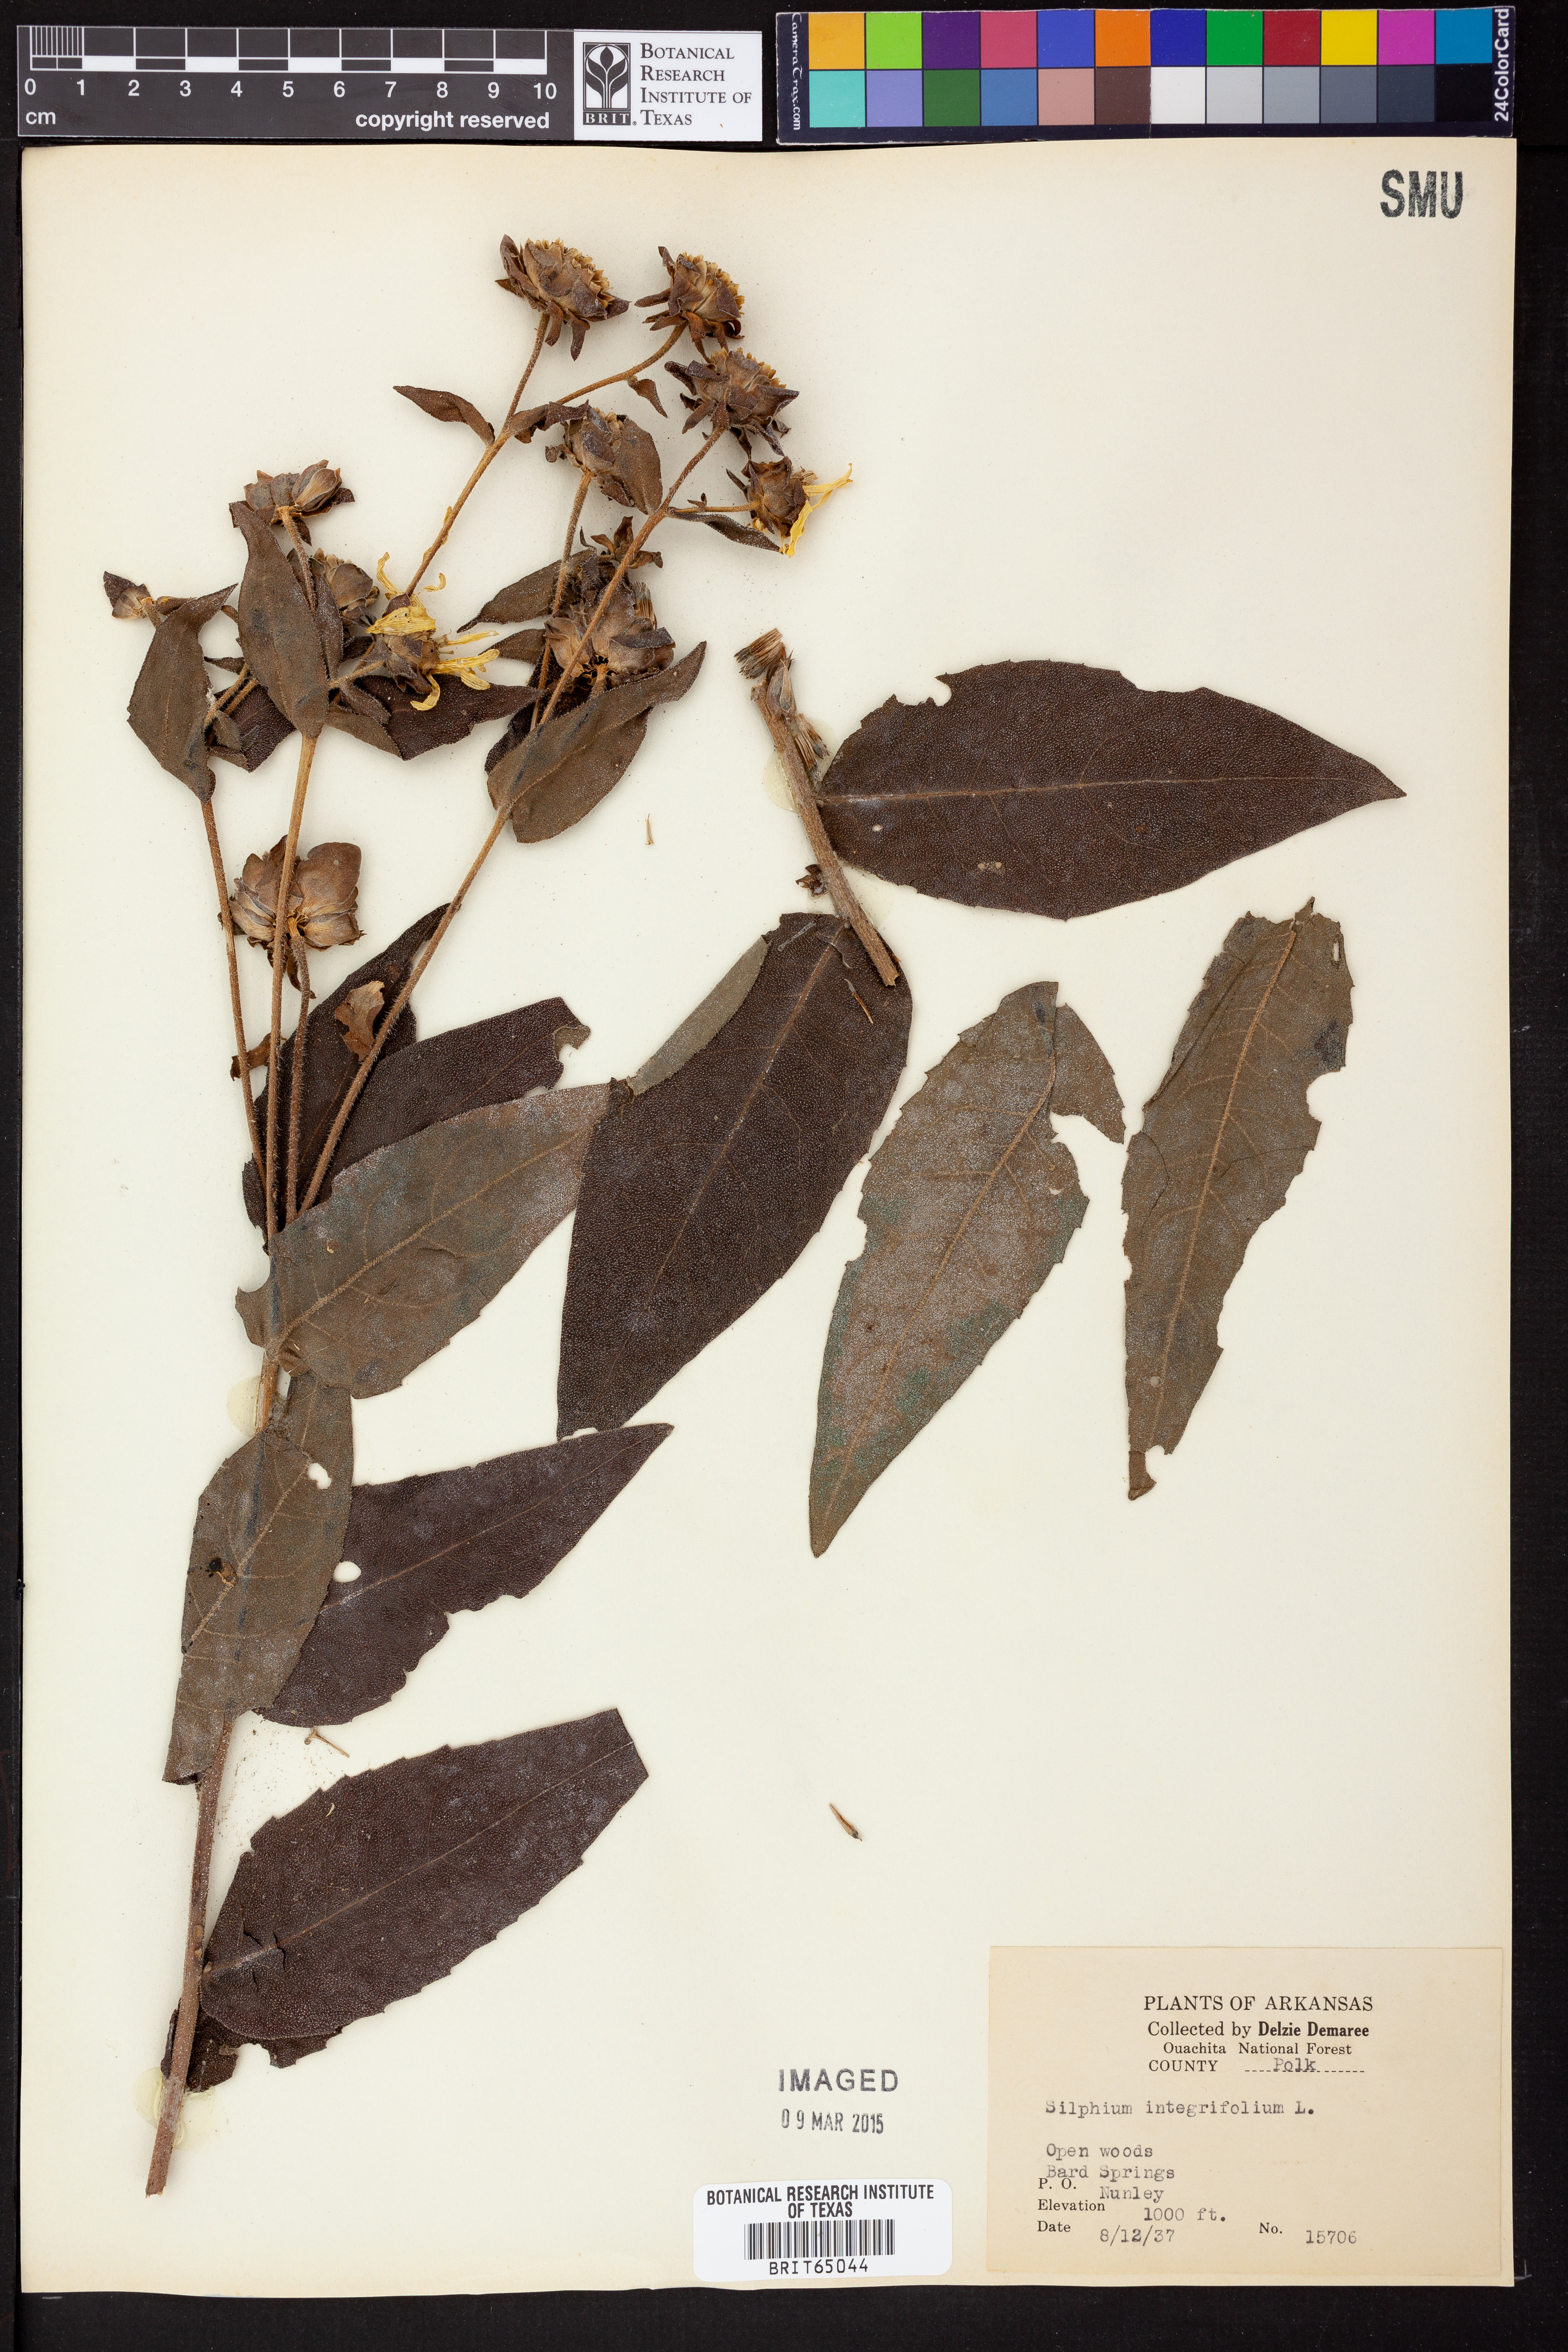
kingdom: Plantae
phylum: Tracheophyta
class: Magnoliopsida
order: Asterales
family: Asteraceae
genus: Silphium
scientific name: Silphium integrifolium
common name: Whole-leaf rosinweed
